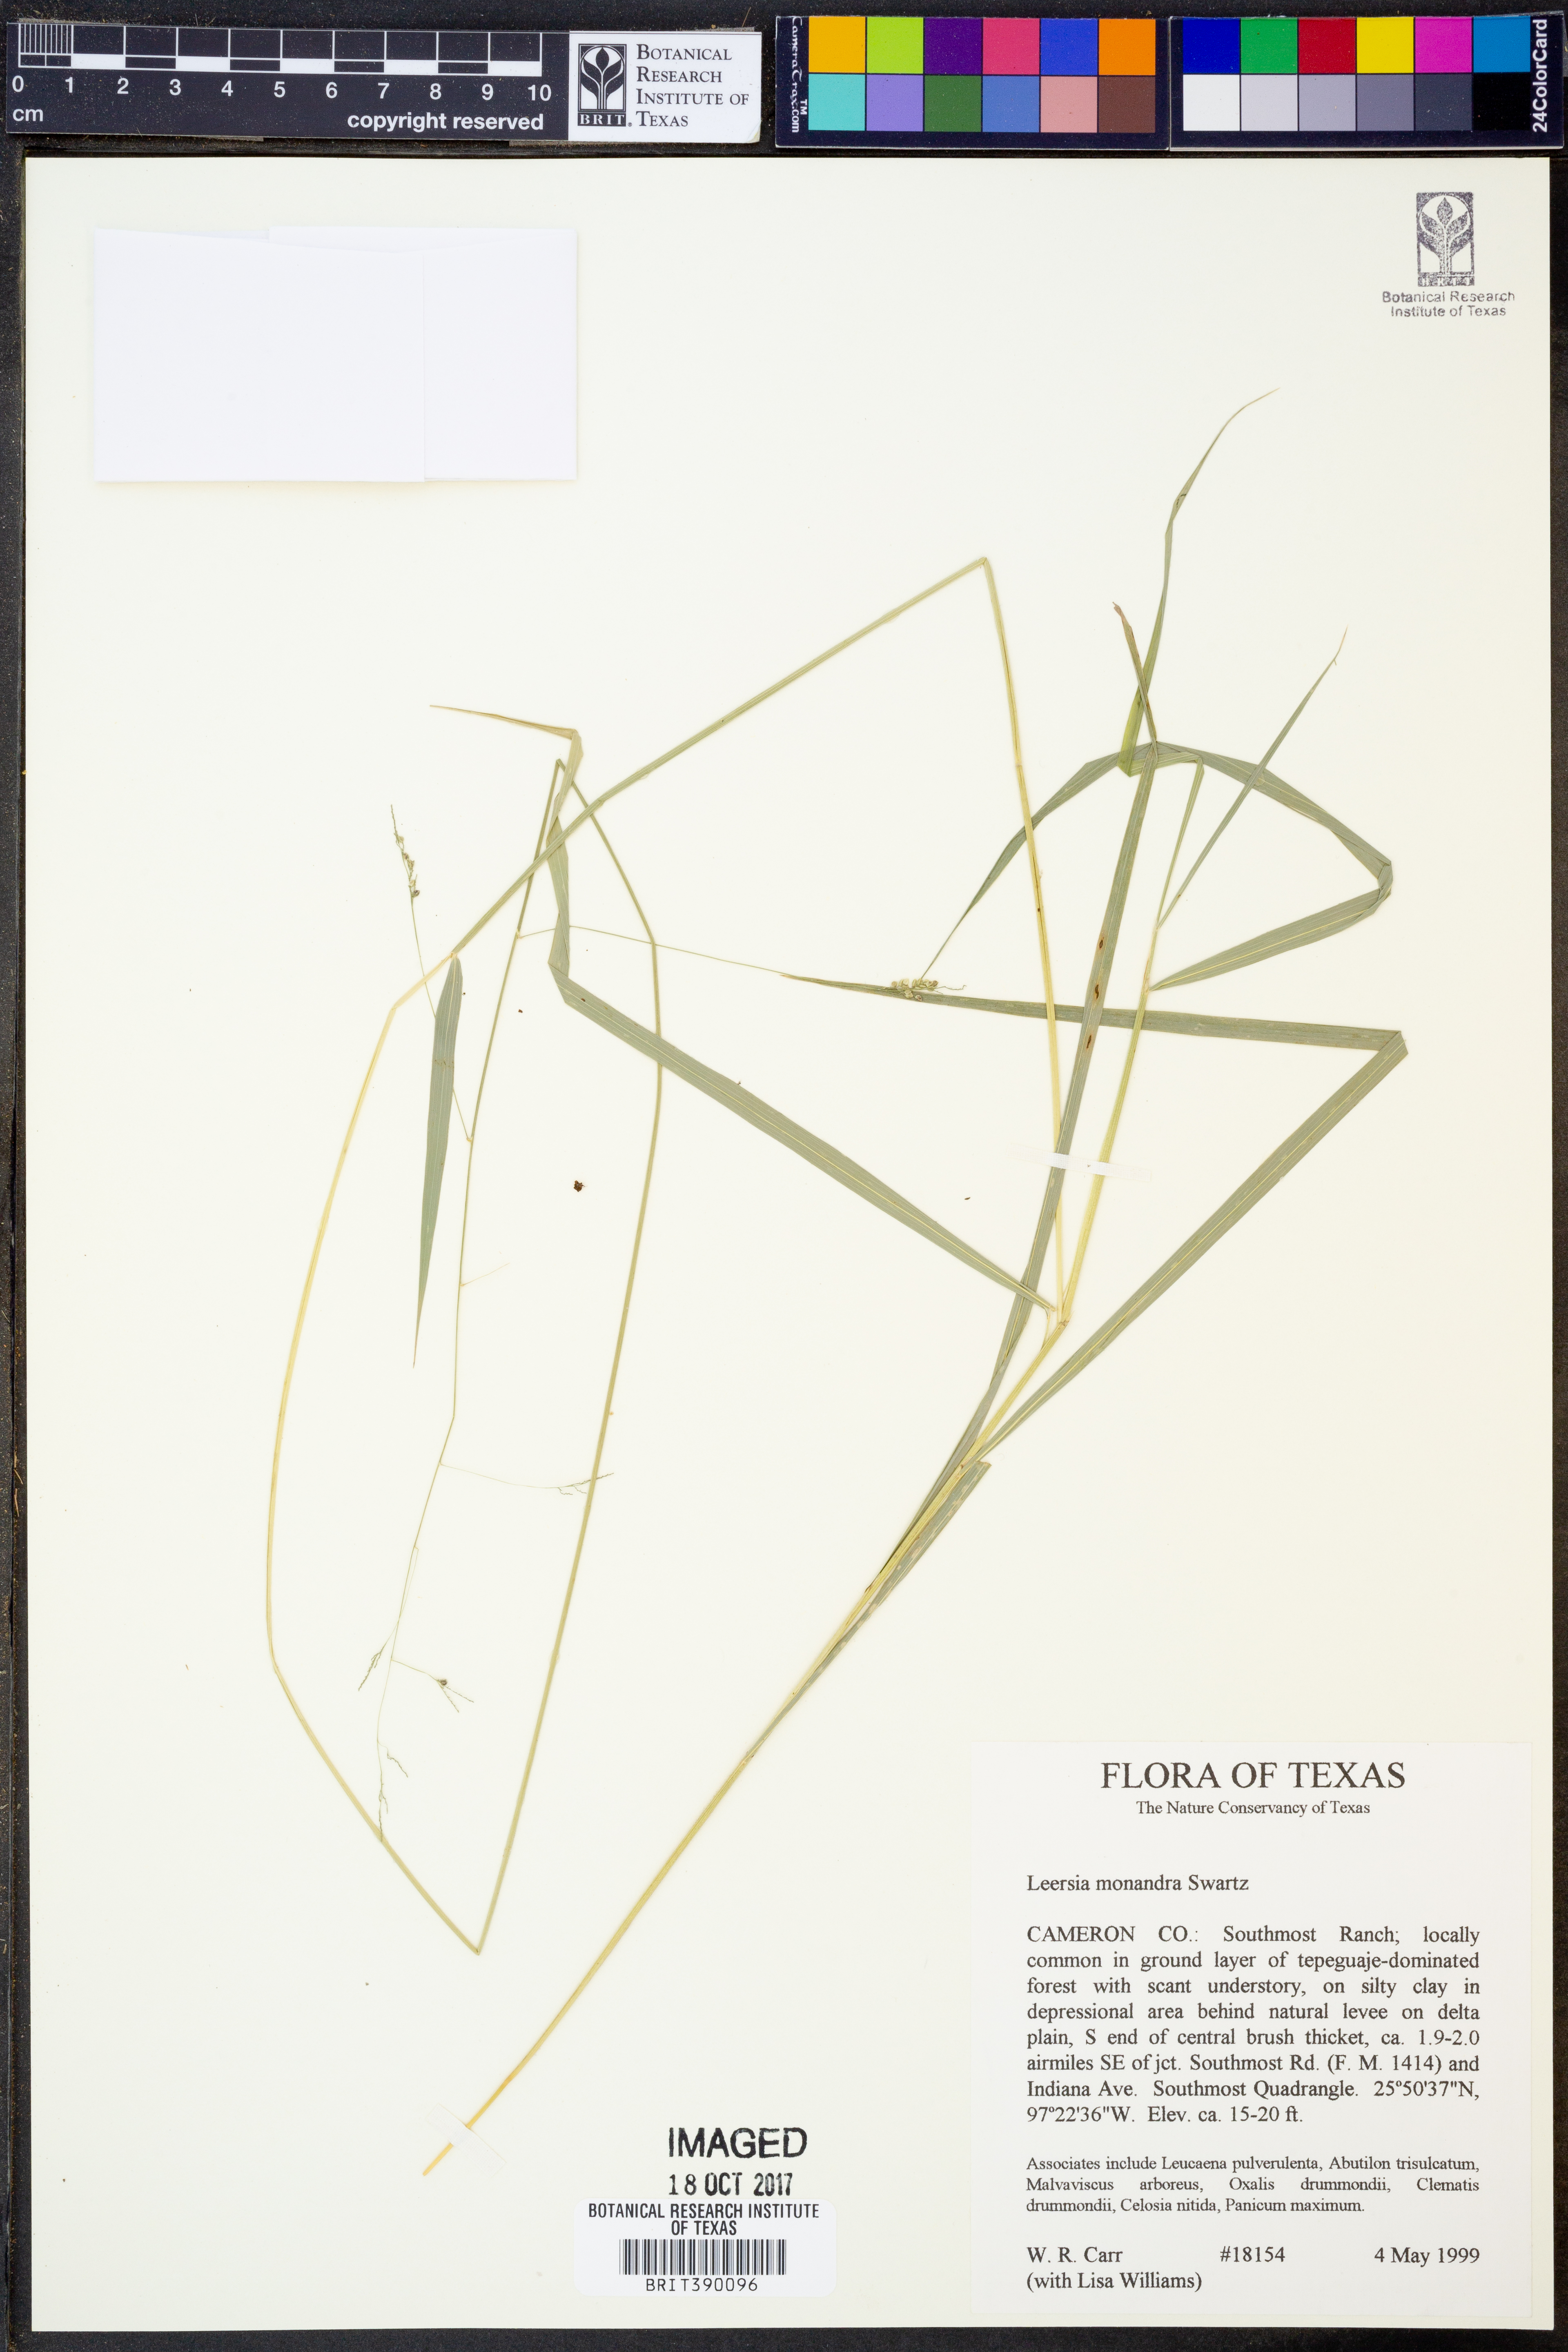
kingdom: Plantae
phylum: Tracheophyta
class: Liliopsida
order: Poales
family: Poaceae
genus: Leersia
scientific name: Leersia monandra
